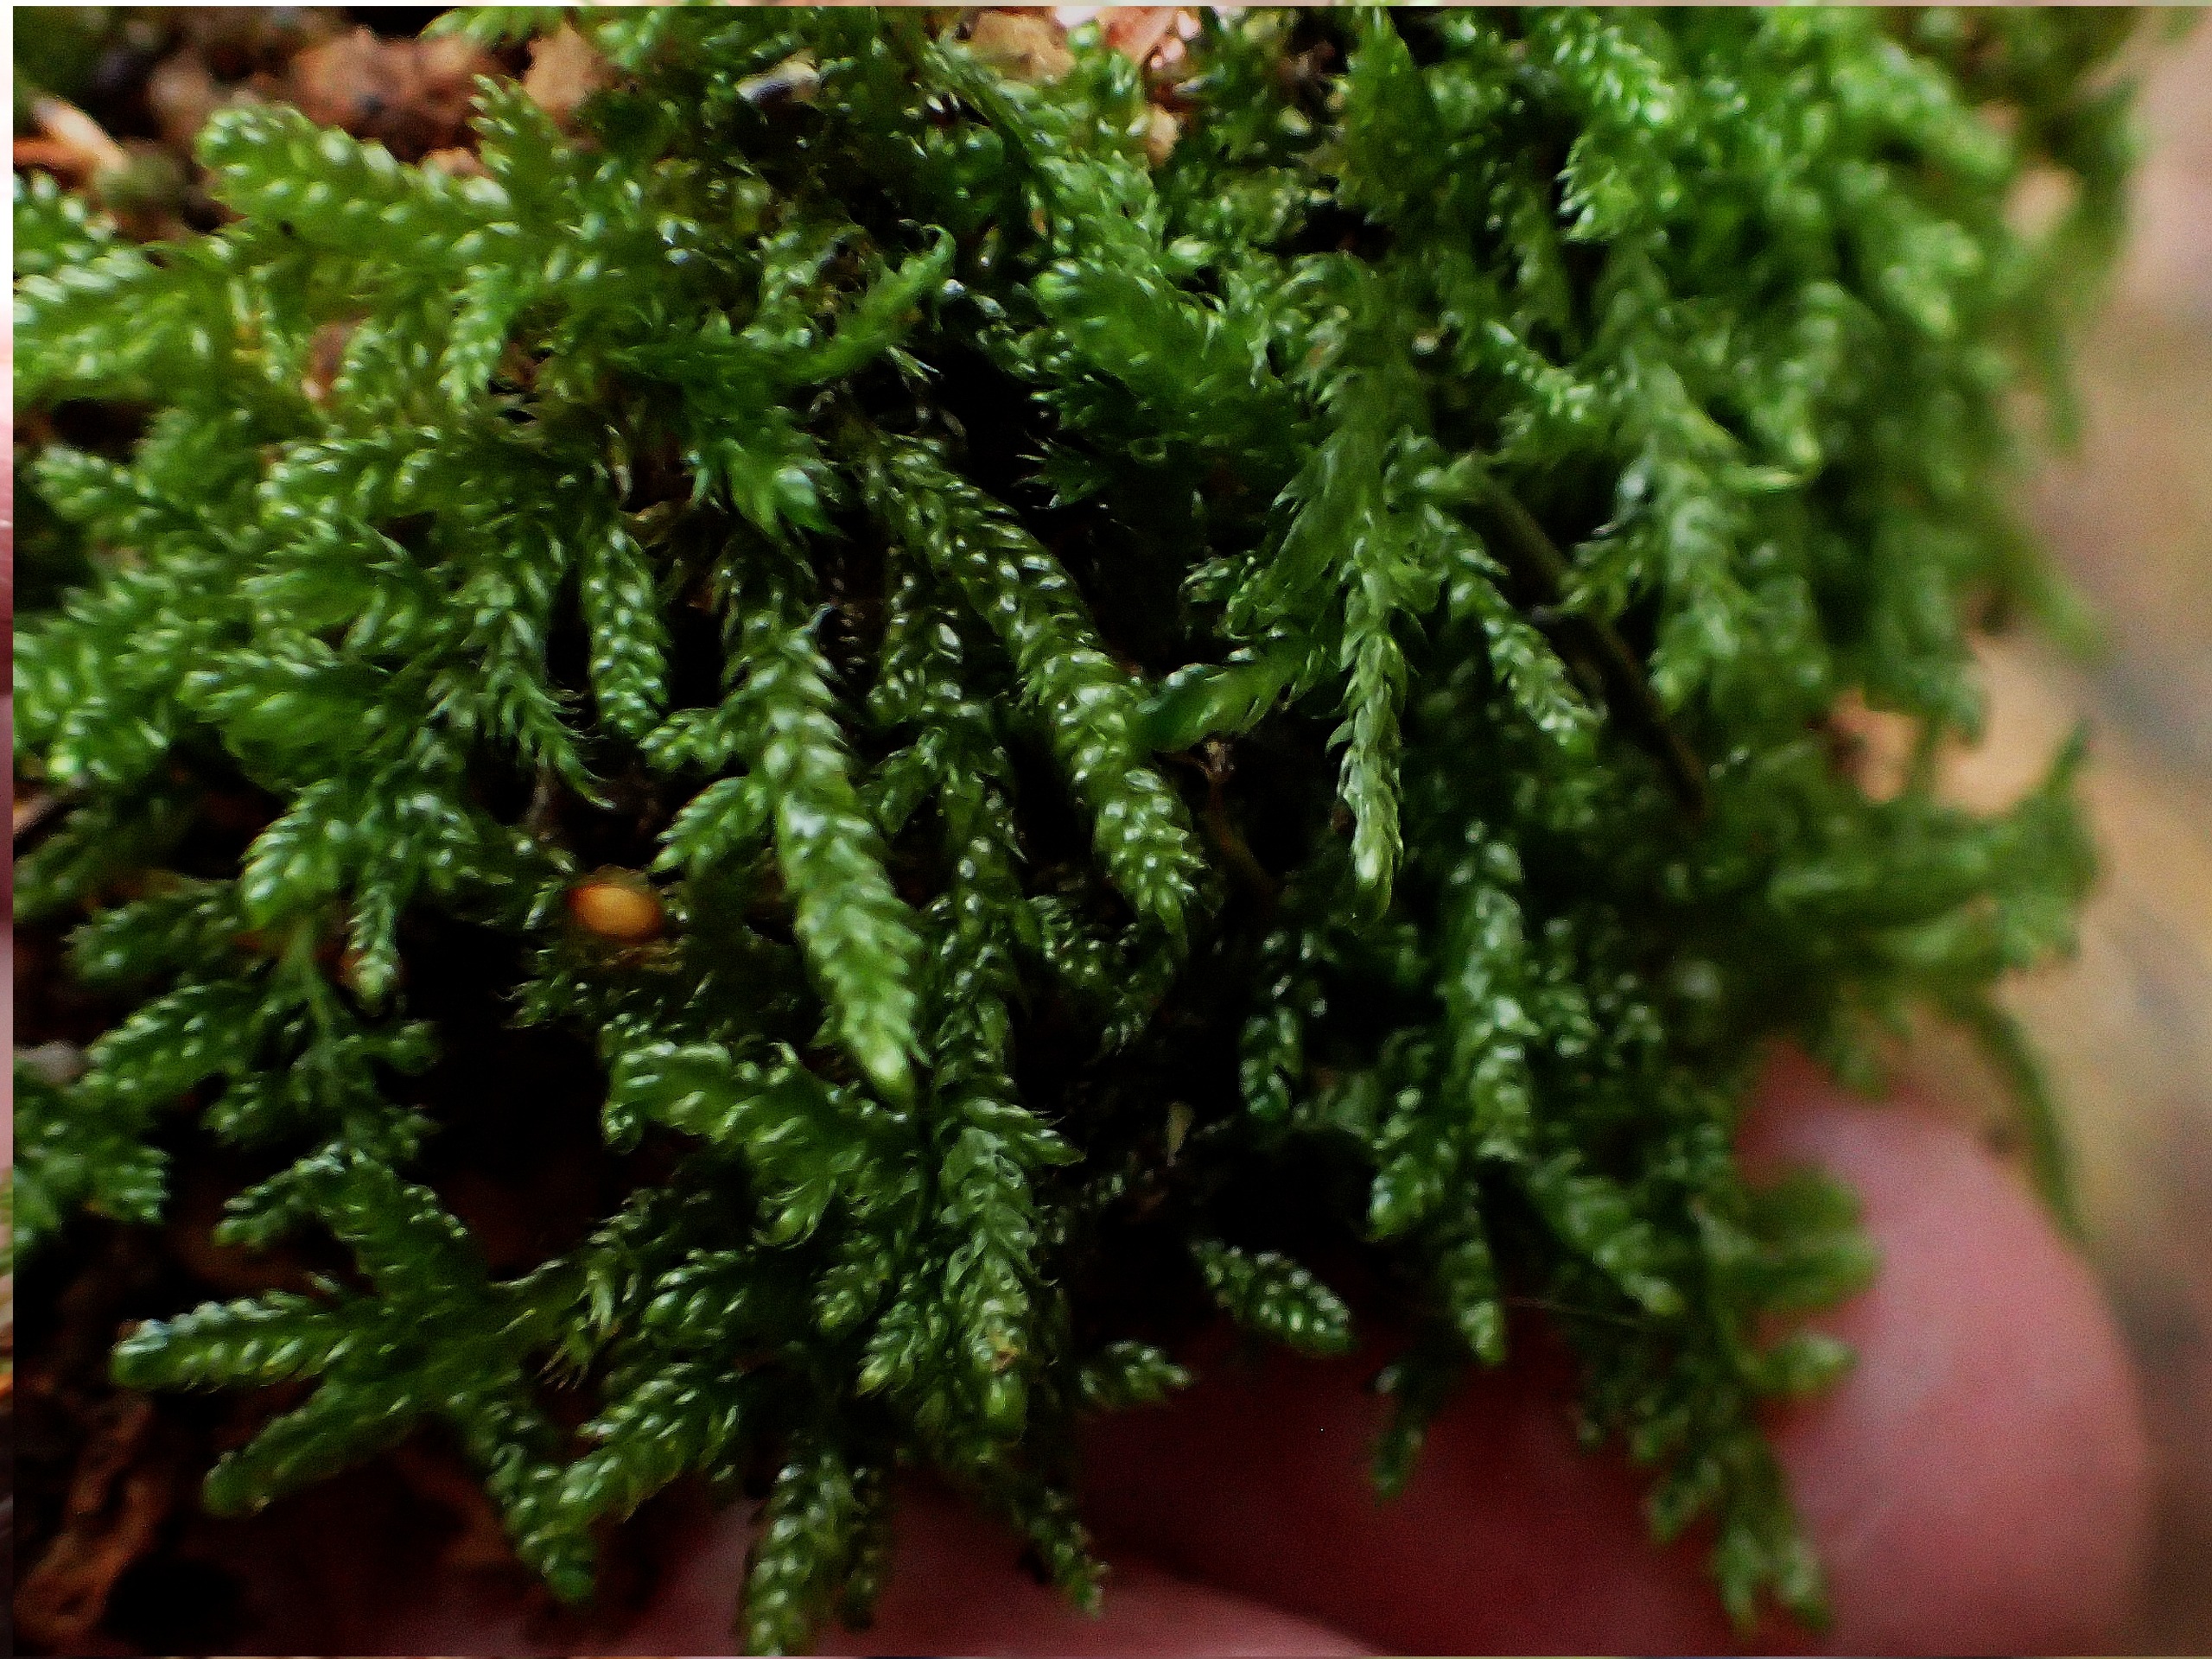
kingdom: Plantae
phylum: Bryophyta
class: Bryopsida
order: Hypnales
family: Hypnaceae
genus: Hypnum
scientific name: Hypnum cupressiforme
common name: Almindelig cypresmos
